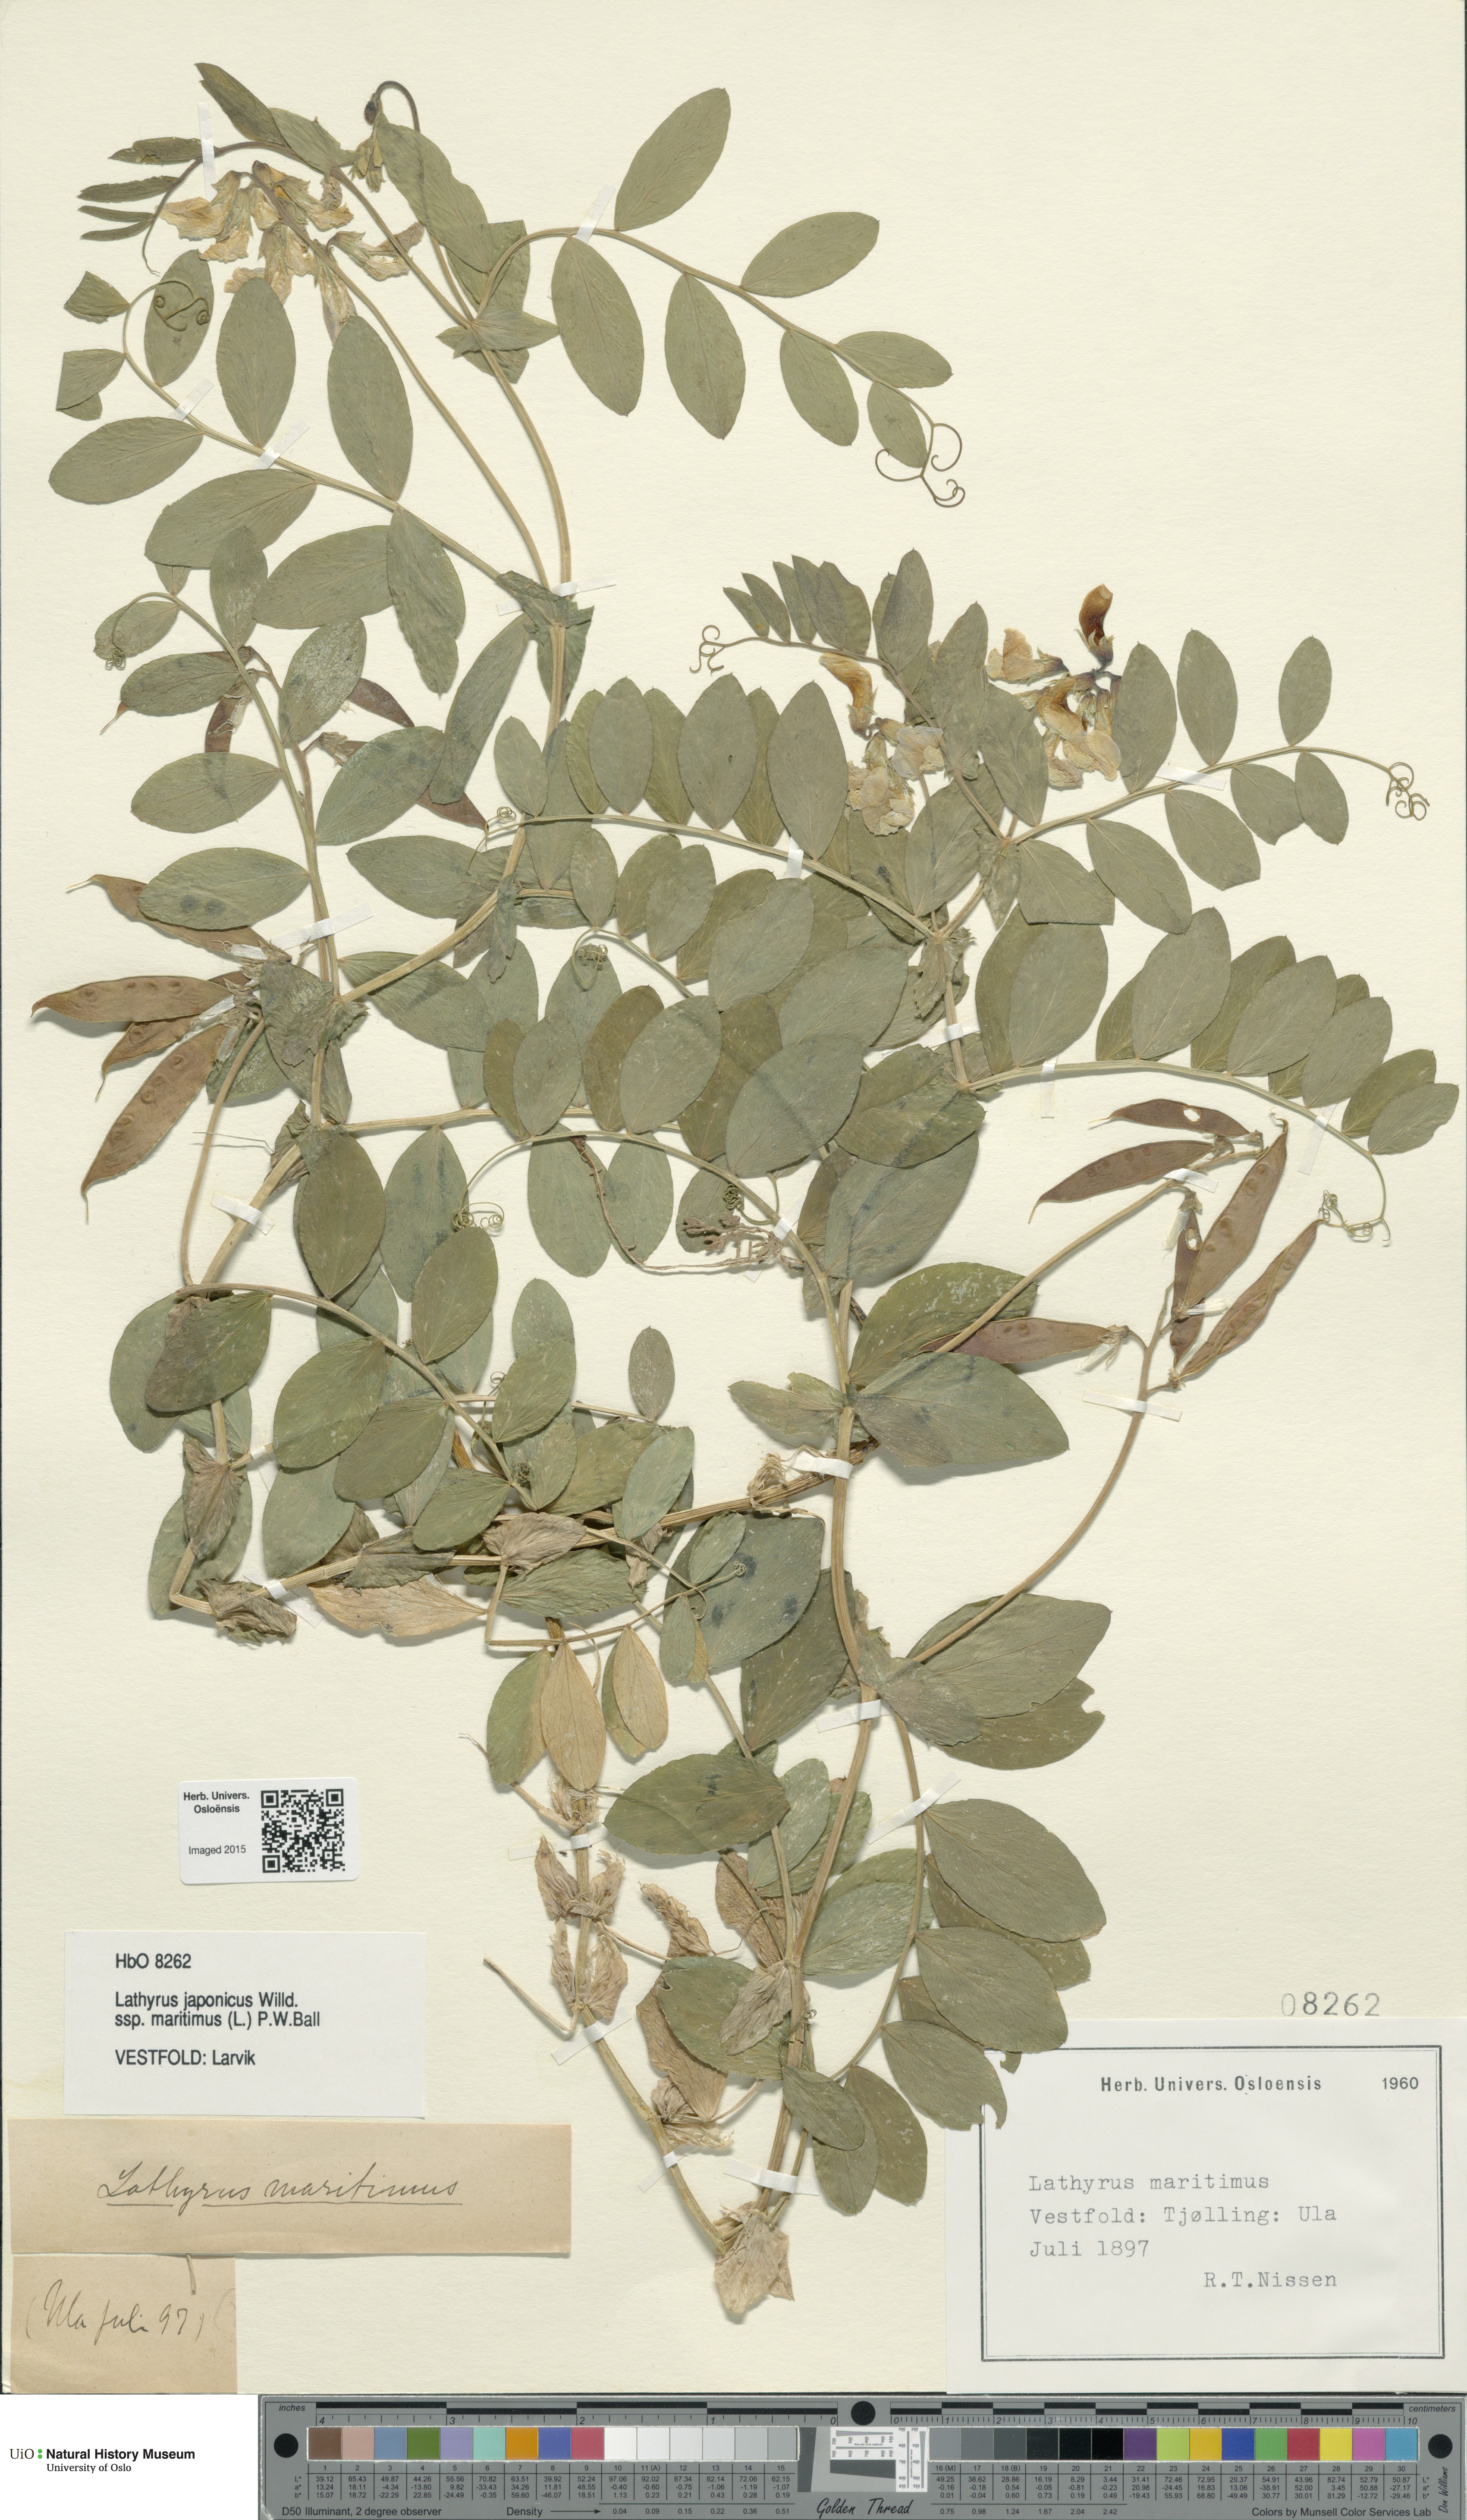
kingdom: Plantae
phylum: Tracheophyta
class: Magnoliopsida
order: Fabales
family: Fabaceae
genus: Lathyrus
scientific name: Lathyrus japonicus
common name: Sea pea
